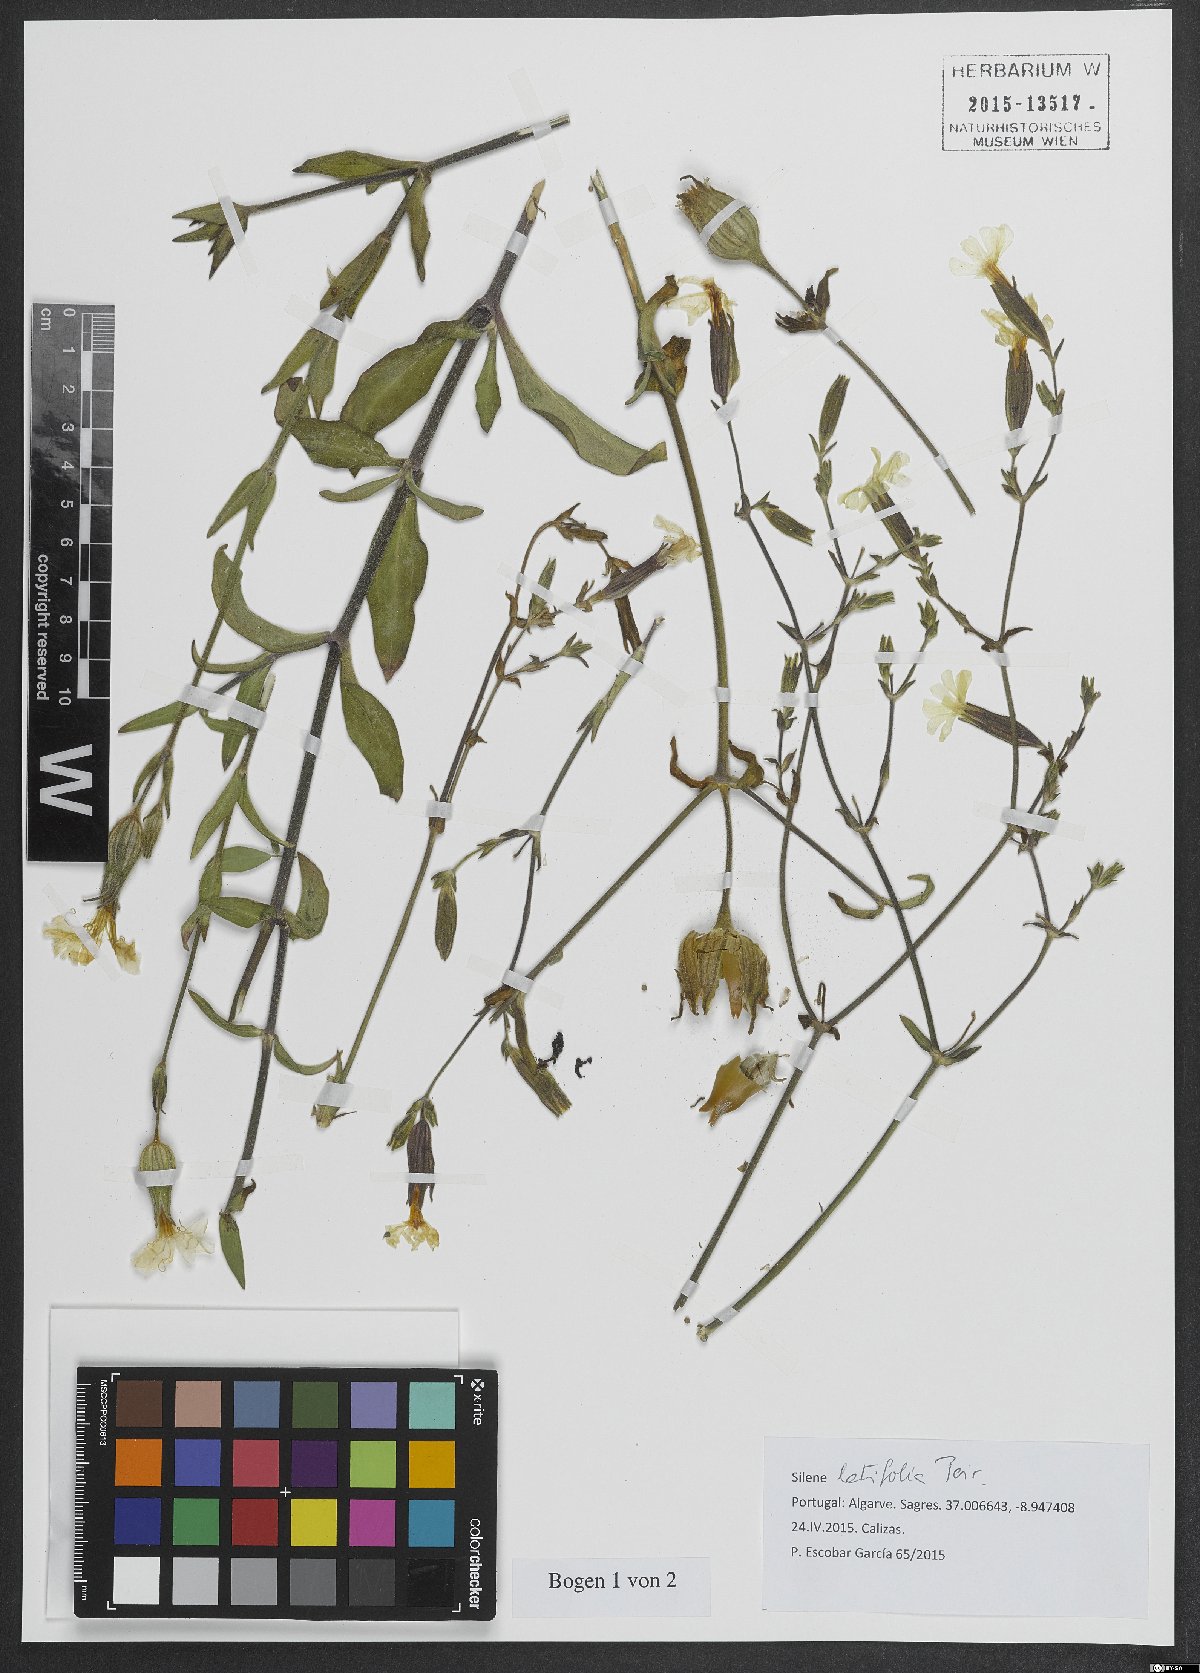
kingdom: Plantae
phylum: Tracheophyta
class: Magnoliopsida
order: Caryophyllales
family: Caryophyllaceae
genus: Silene
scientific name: Silene latifolia
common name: White campion
